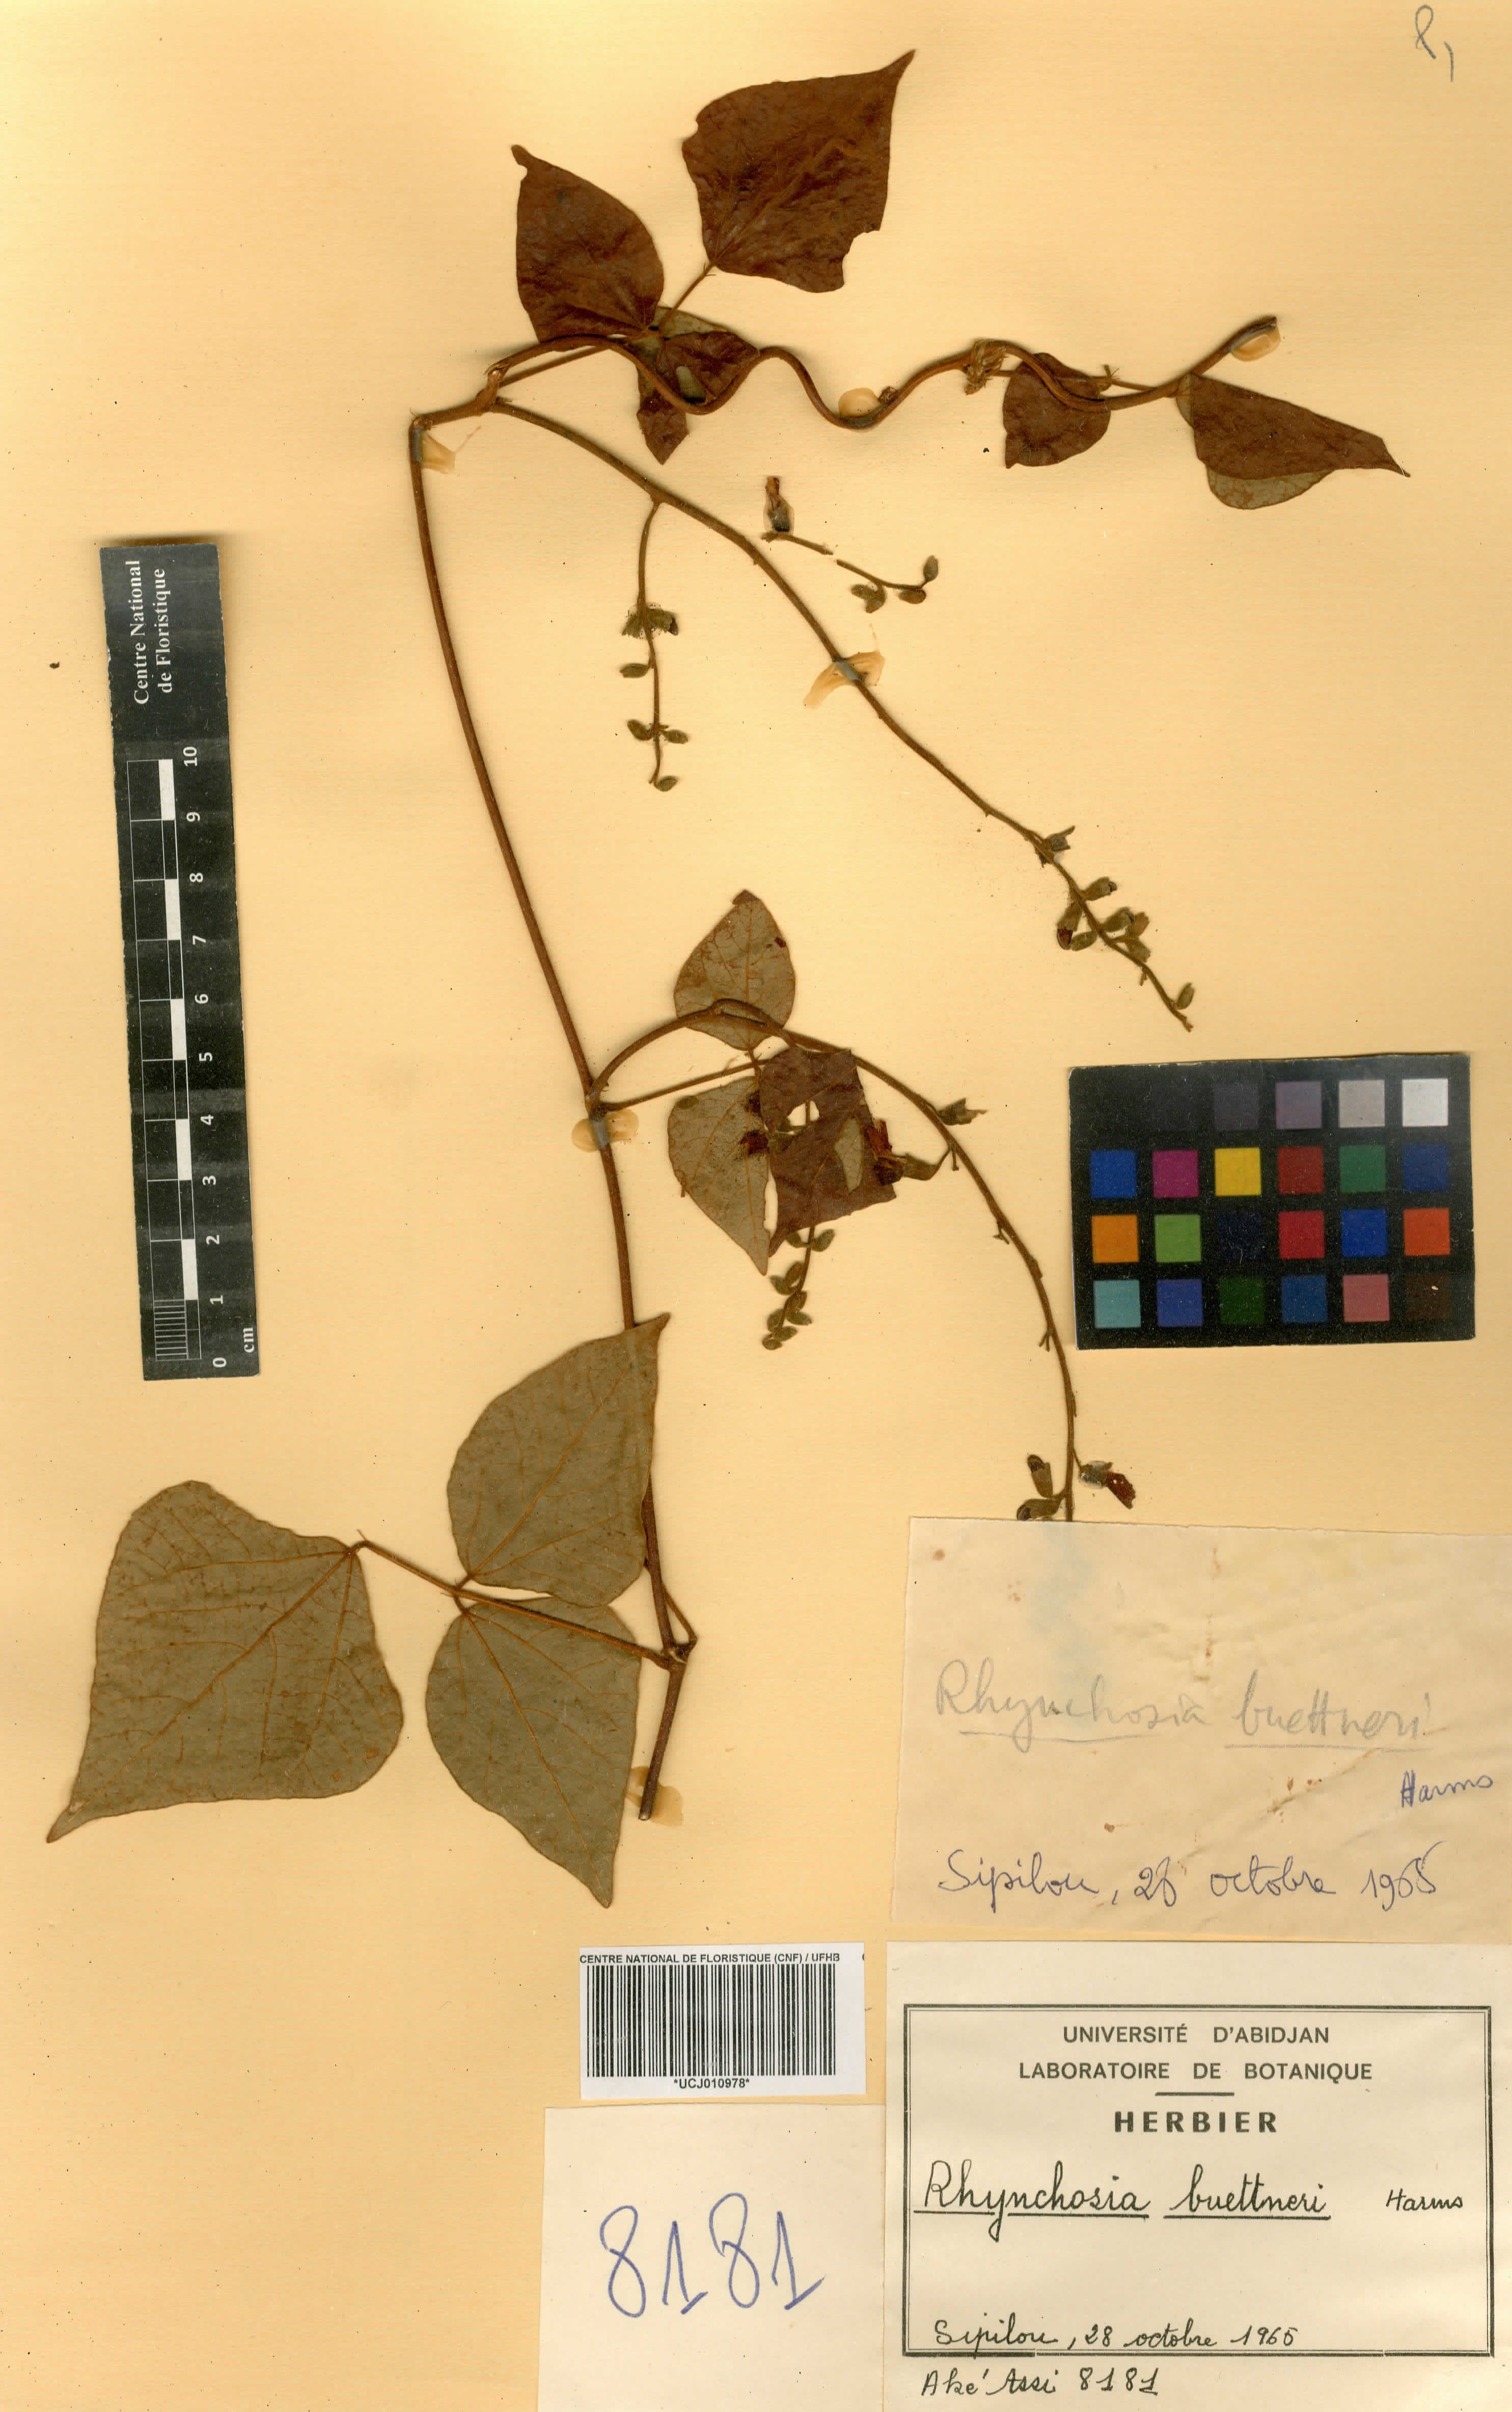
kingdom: Plantae
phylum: Tracheophyta
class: Magnoliopsida
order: Fabales
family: Fabaceae
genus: Rhynchosia
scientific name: Rhynchosia buettneri
